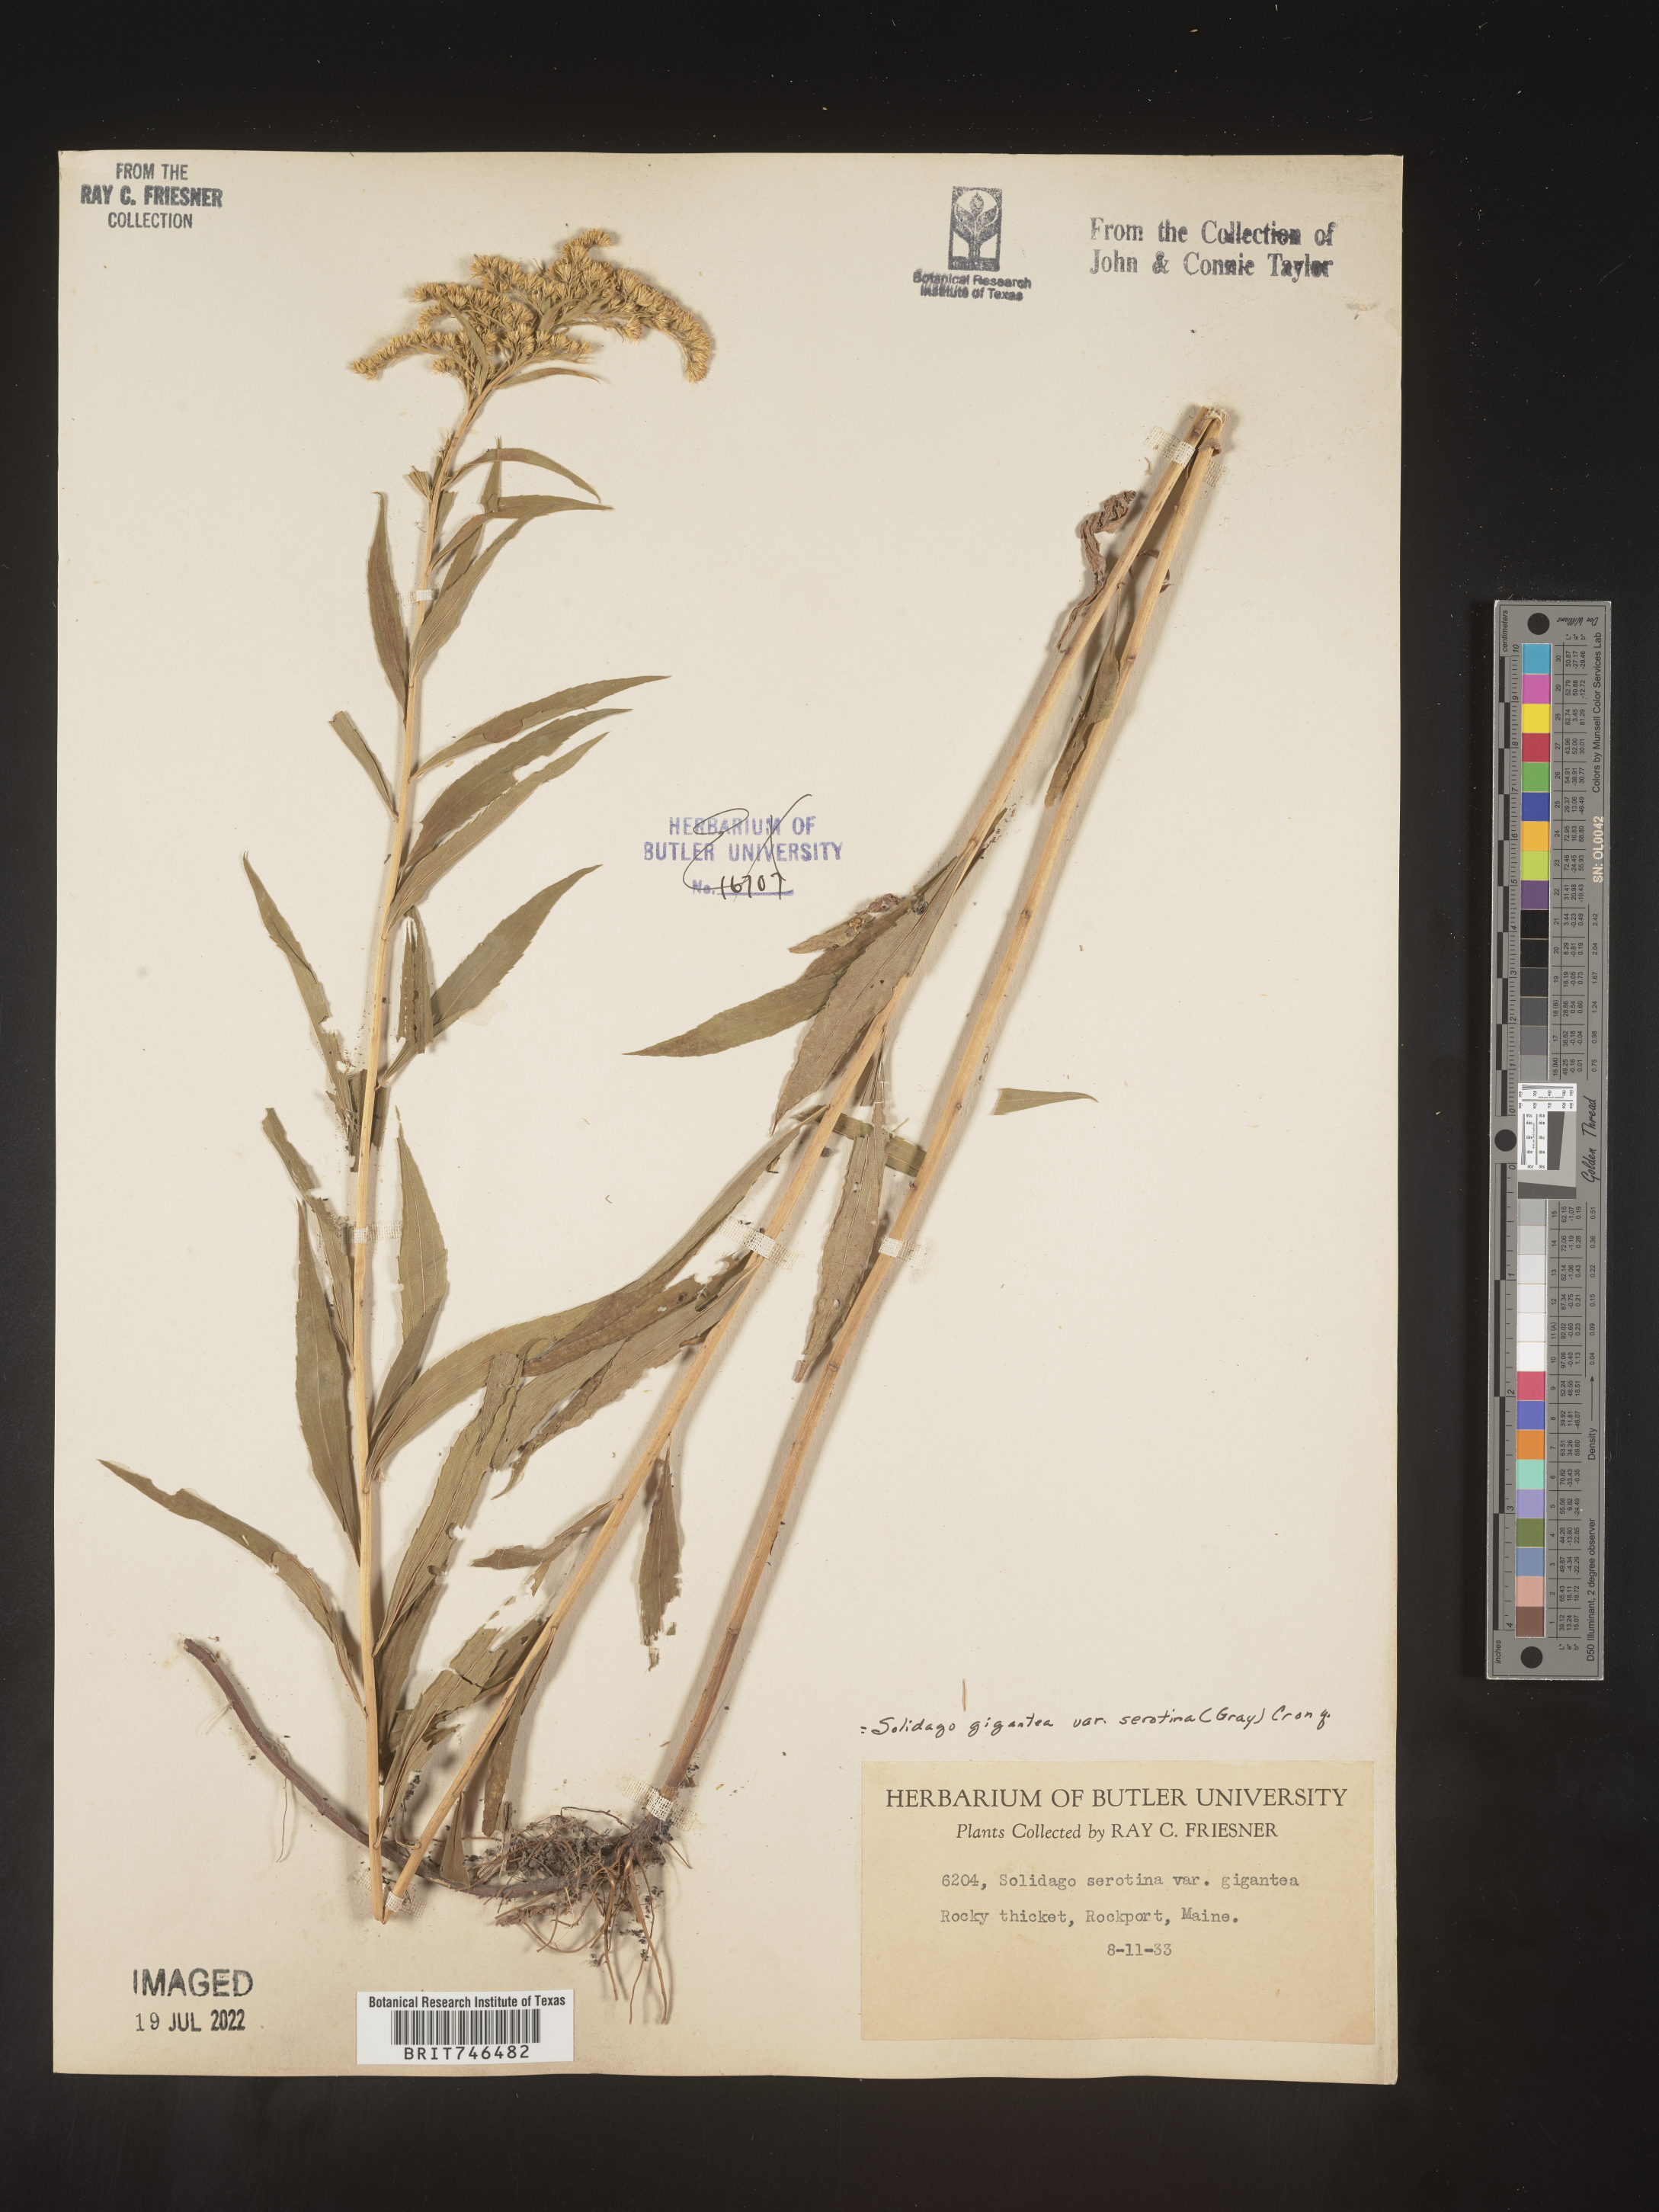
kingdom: Plantae
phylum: Tracheophyta
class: Magnoliopsida
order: Asterales
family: Asteraceae
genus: Solidago
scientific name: Solidago gigantea
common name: Giant goldenrod
